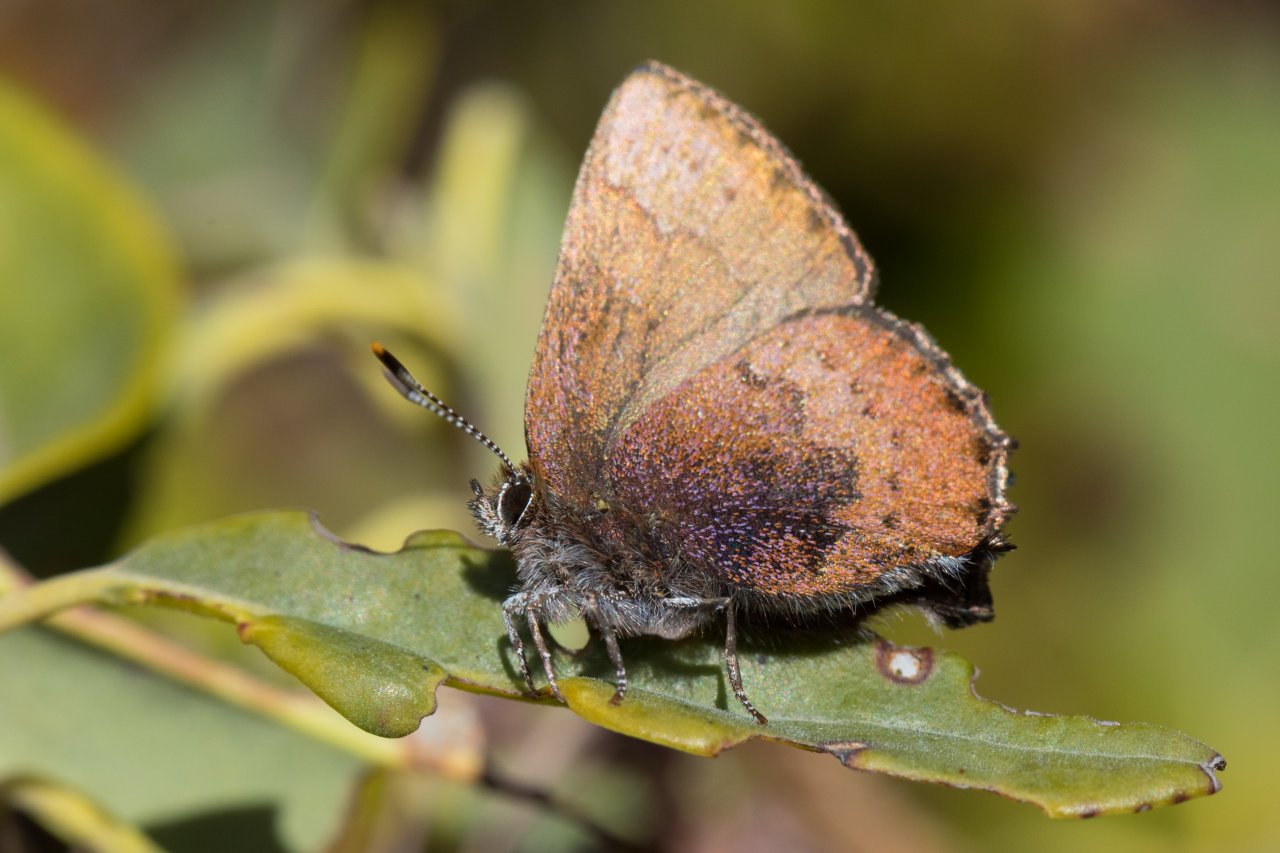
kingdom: Animalia
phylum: Arthropoda
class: Insecta
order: Lepidoptera
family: Lycaenidae
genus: Incisalia
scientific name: Incisalia irioides
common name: Brown Elfin
